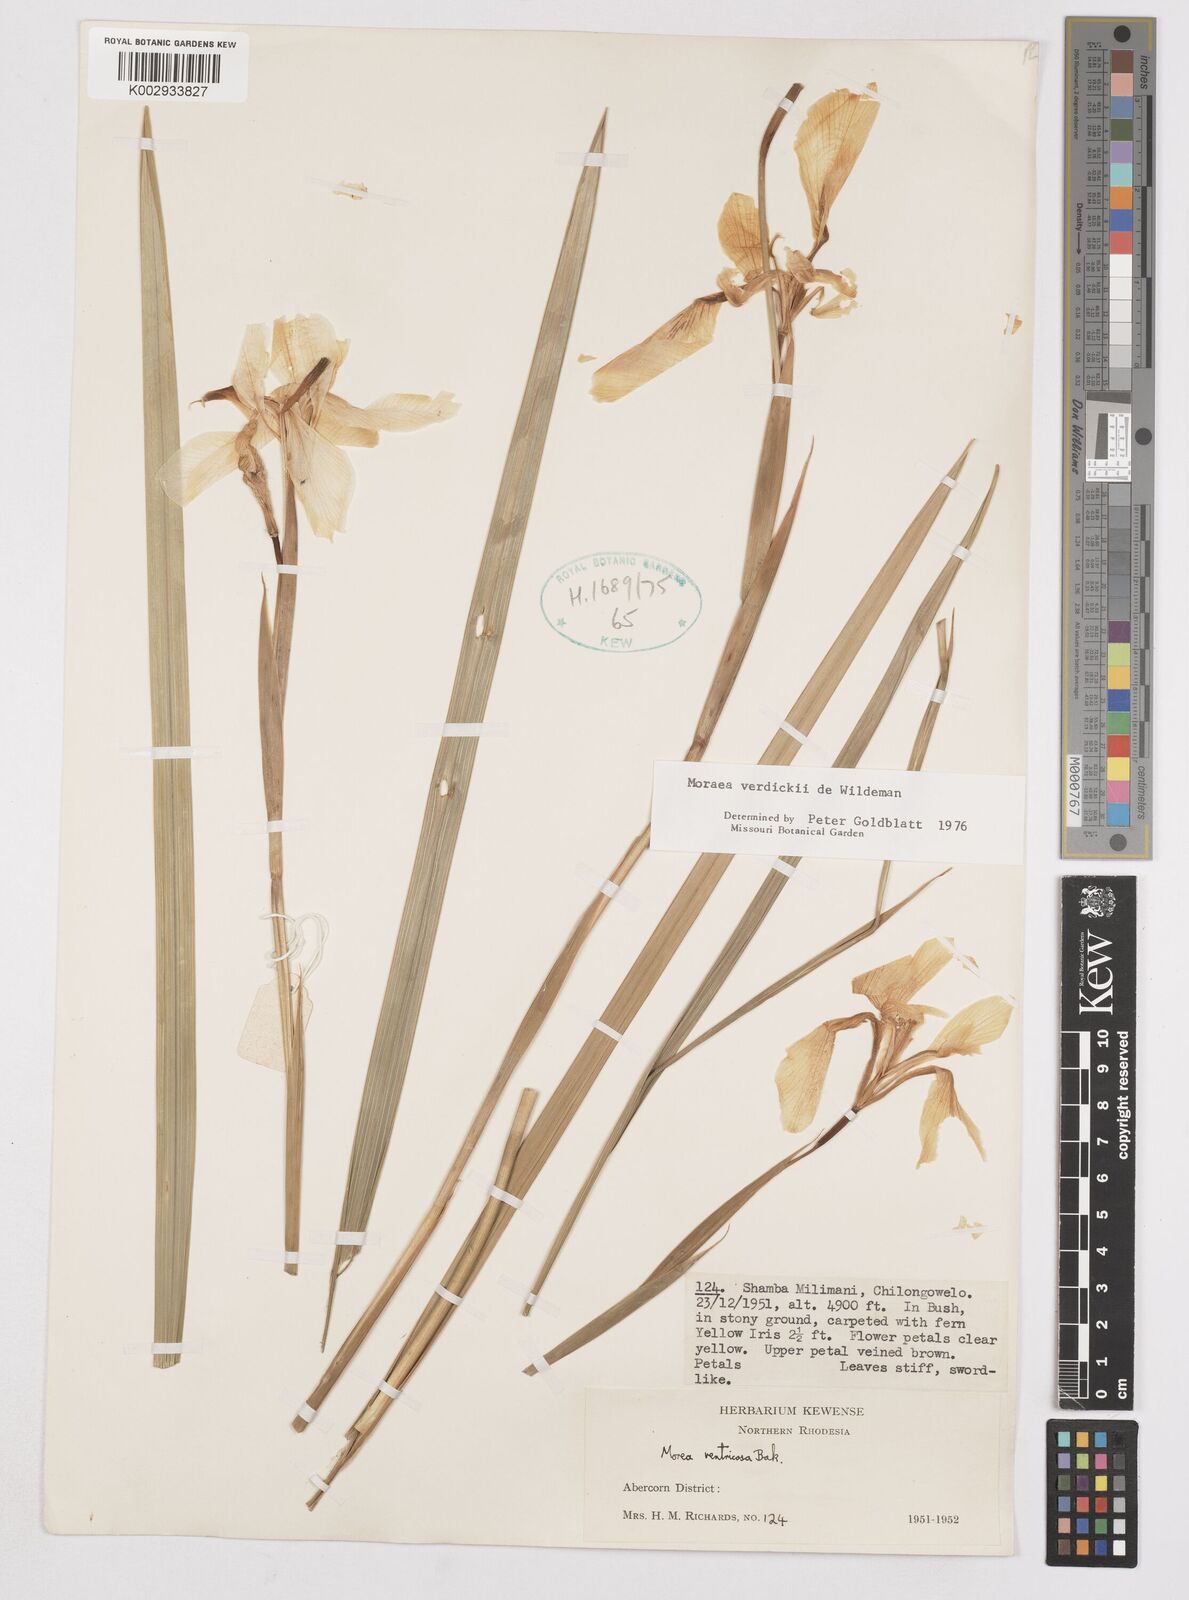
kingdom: Plantae
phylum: Tracheophyta
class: Liliopsida
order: Asparagales
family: Iridaceae
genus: Moraea
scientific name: Moraea verdickii
